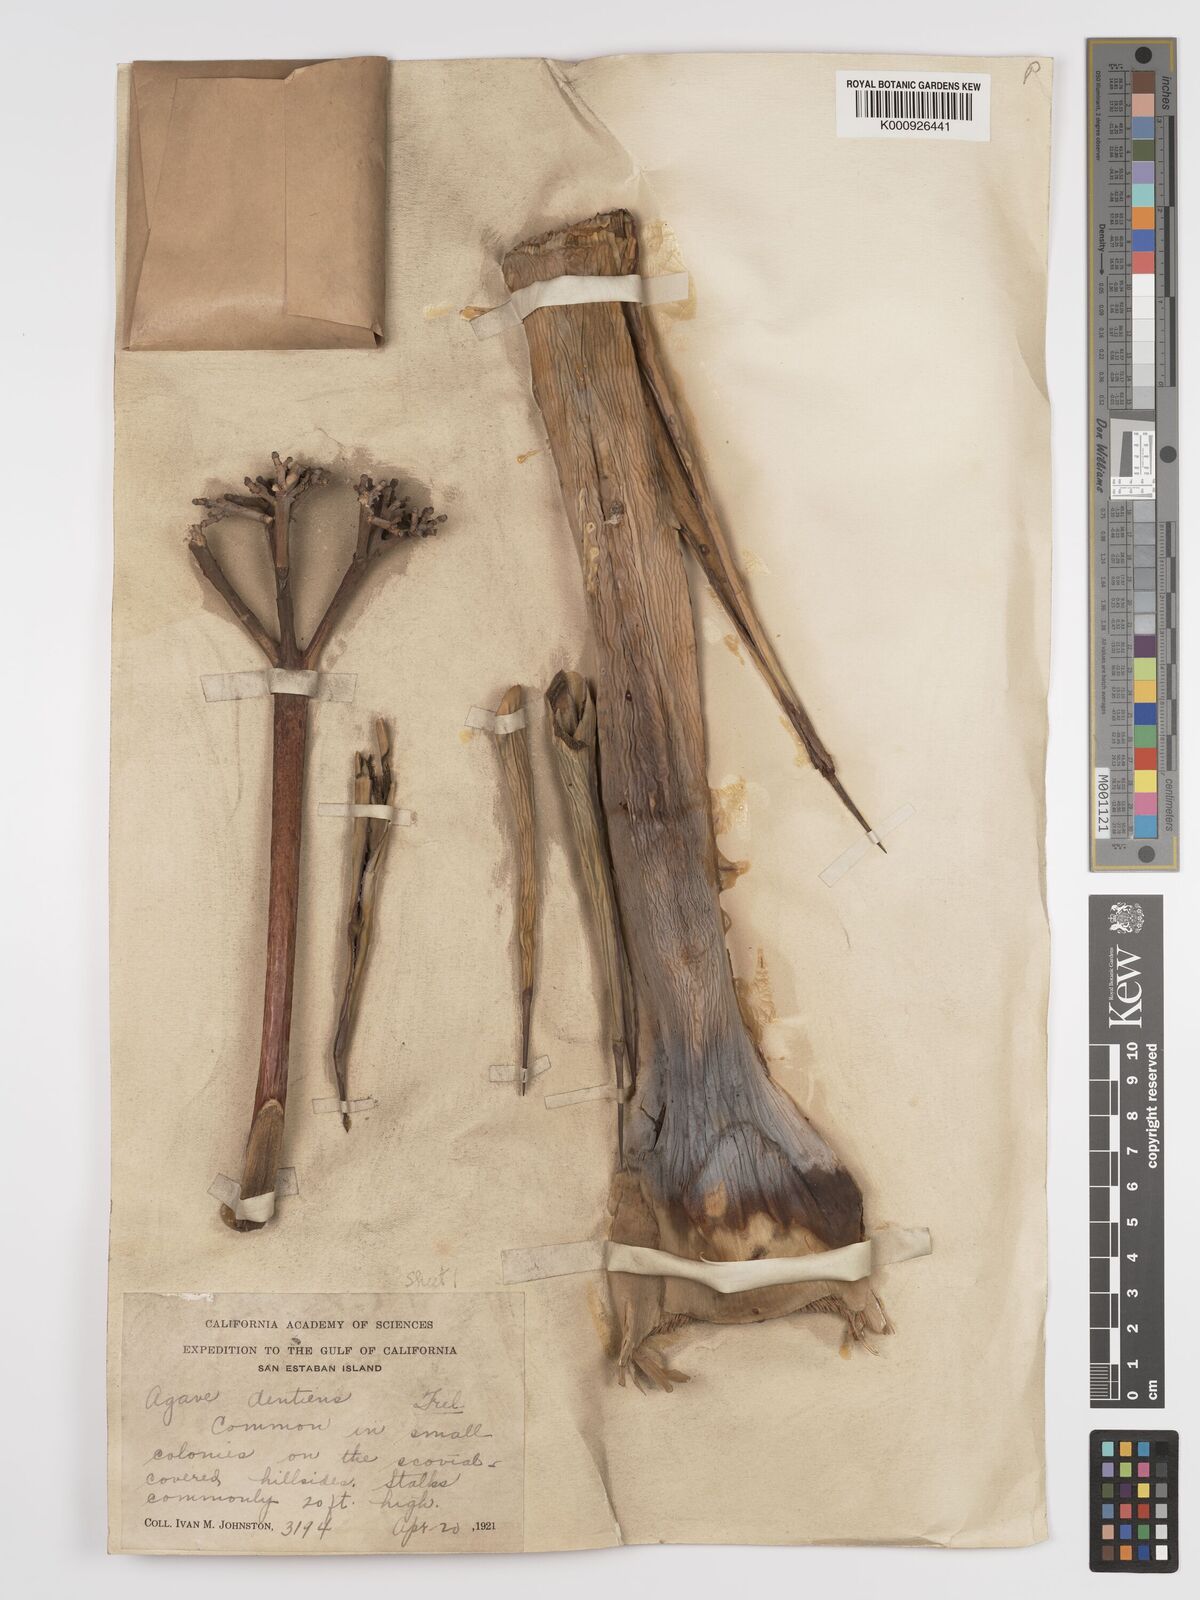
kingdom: Plantae
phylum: Tracheophyta
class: Liliopsida
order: Asparagales
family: Asparagaceae
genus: Agave
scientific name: Agave cerulata
